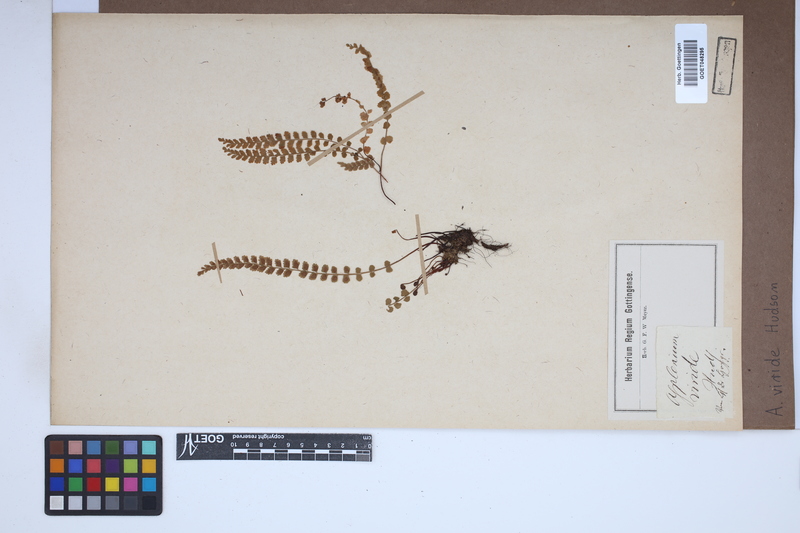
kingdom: Plantae
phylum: Tracheophyta
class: Polypodiopsida
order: Polypodiales
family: Aspleniaceae
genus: Asplenium
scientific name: Asplenium viride
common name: Green spleenwort
